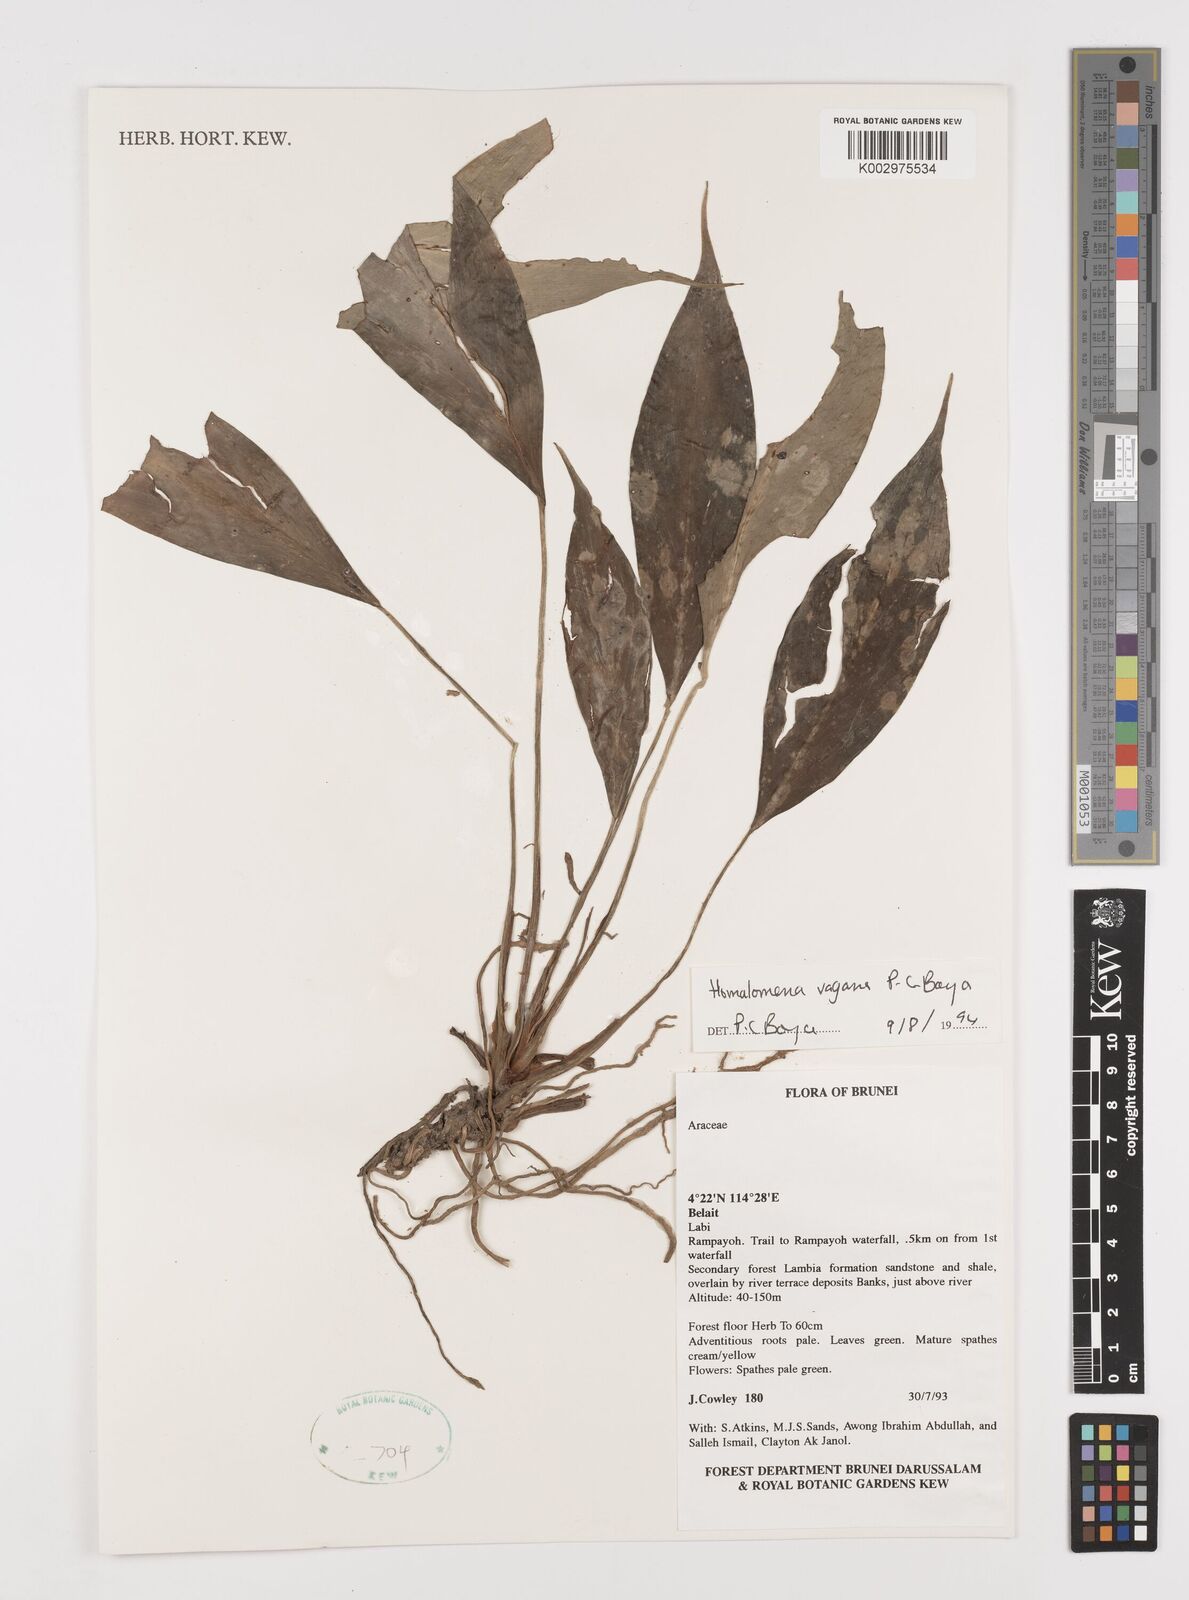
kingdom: Plantae
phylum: Tracheophyta
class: Liliopsida
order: Alismatales
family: Araceae
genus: Homalomena
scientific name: Homalomena vagans
